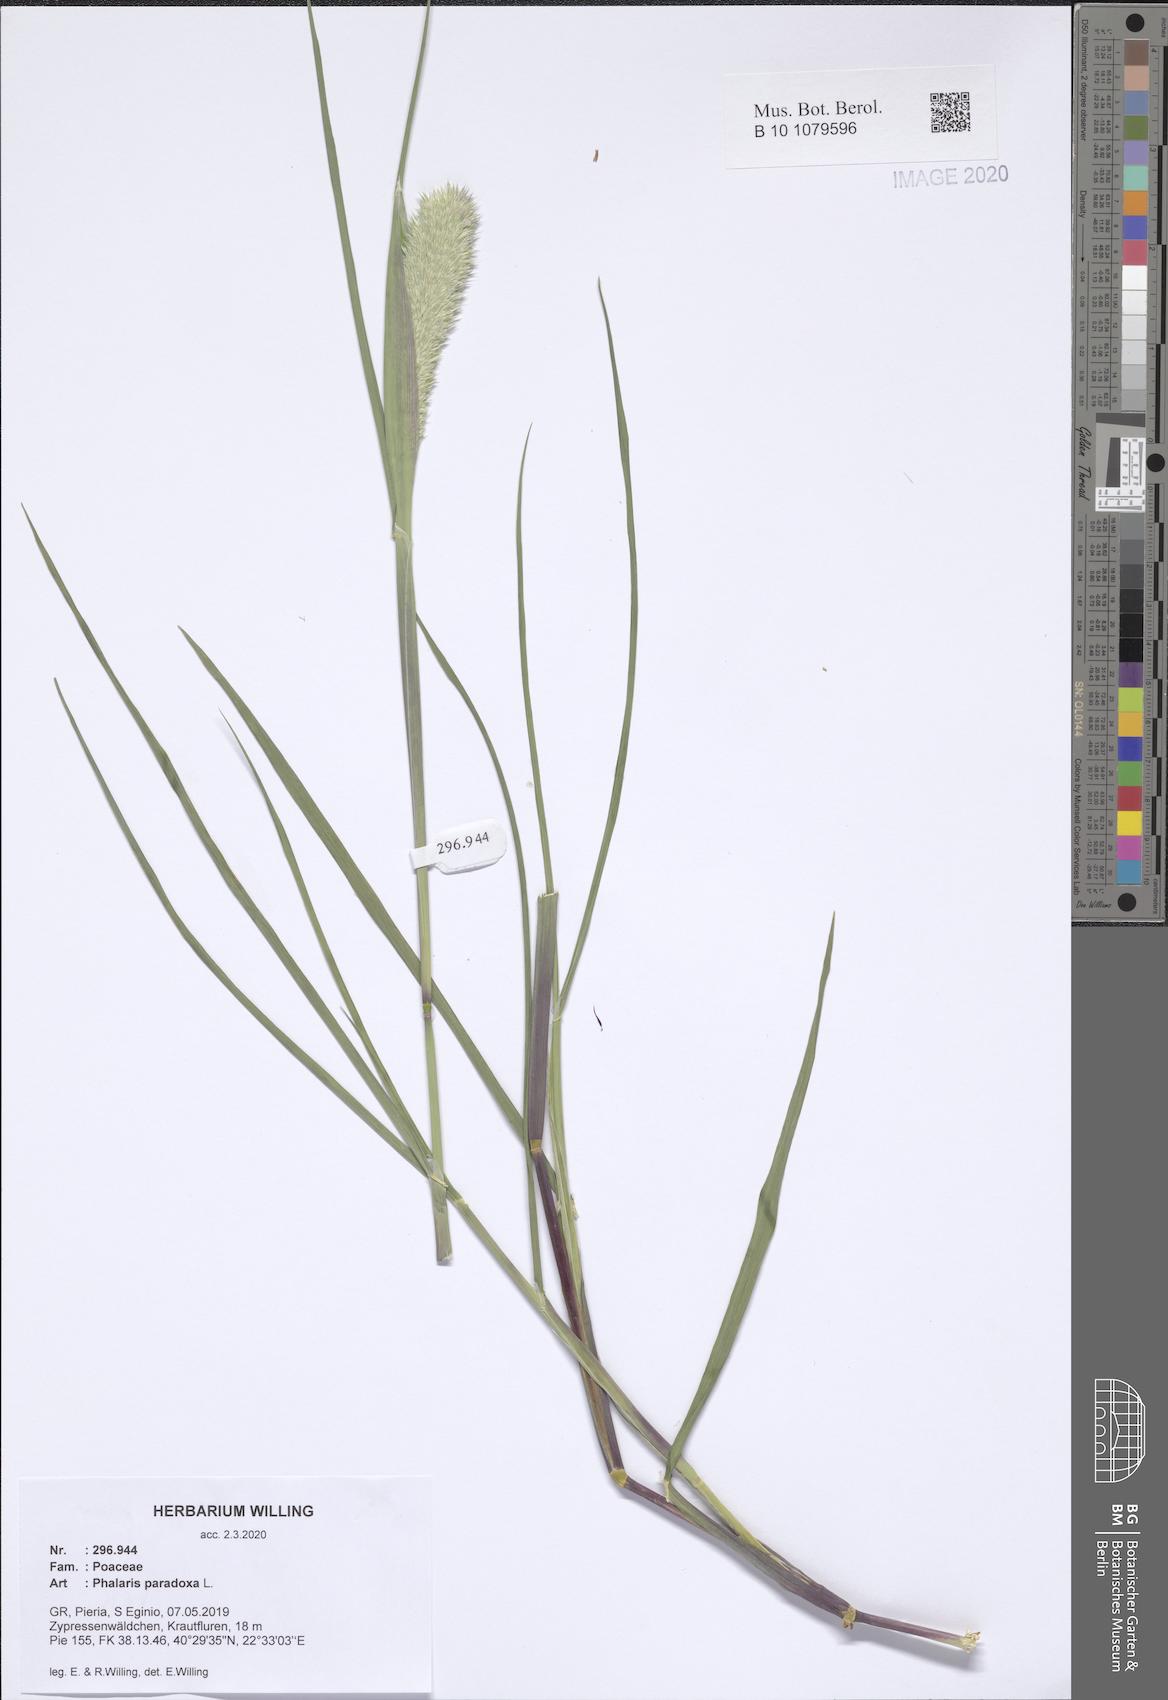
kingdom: Plantae
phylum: Tracheophyta
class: Liliopsida
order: Poales
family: Poaceae
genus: Phalaris
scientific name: Phalaris paradoxa
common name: Awned canary-grass
